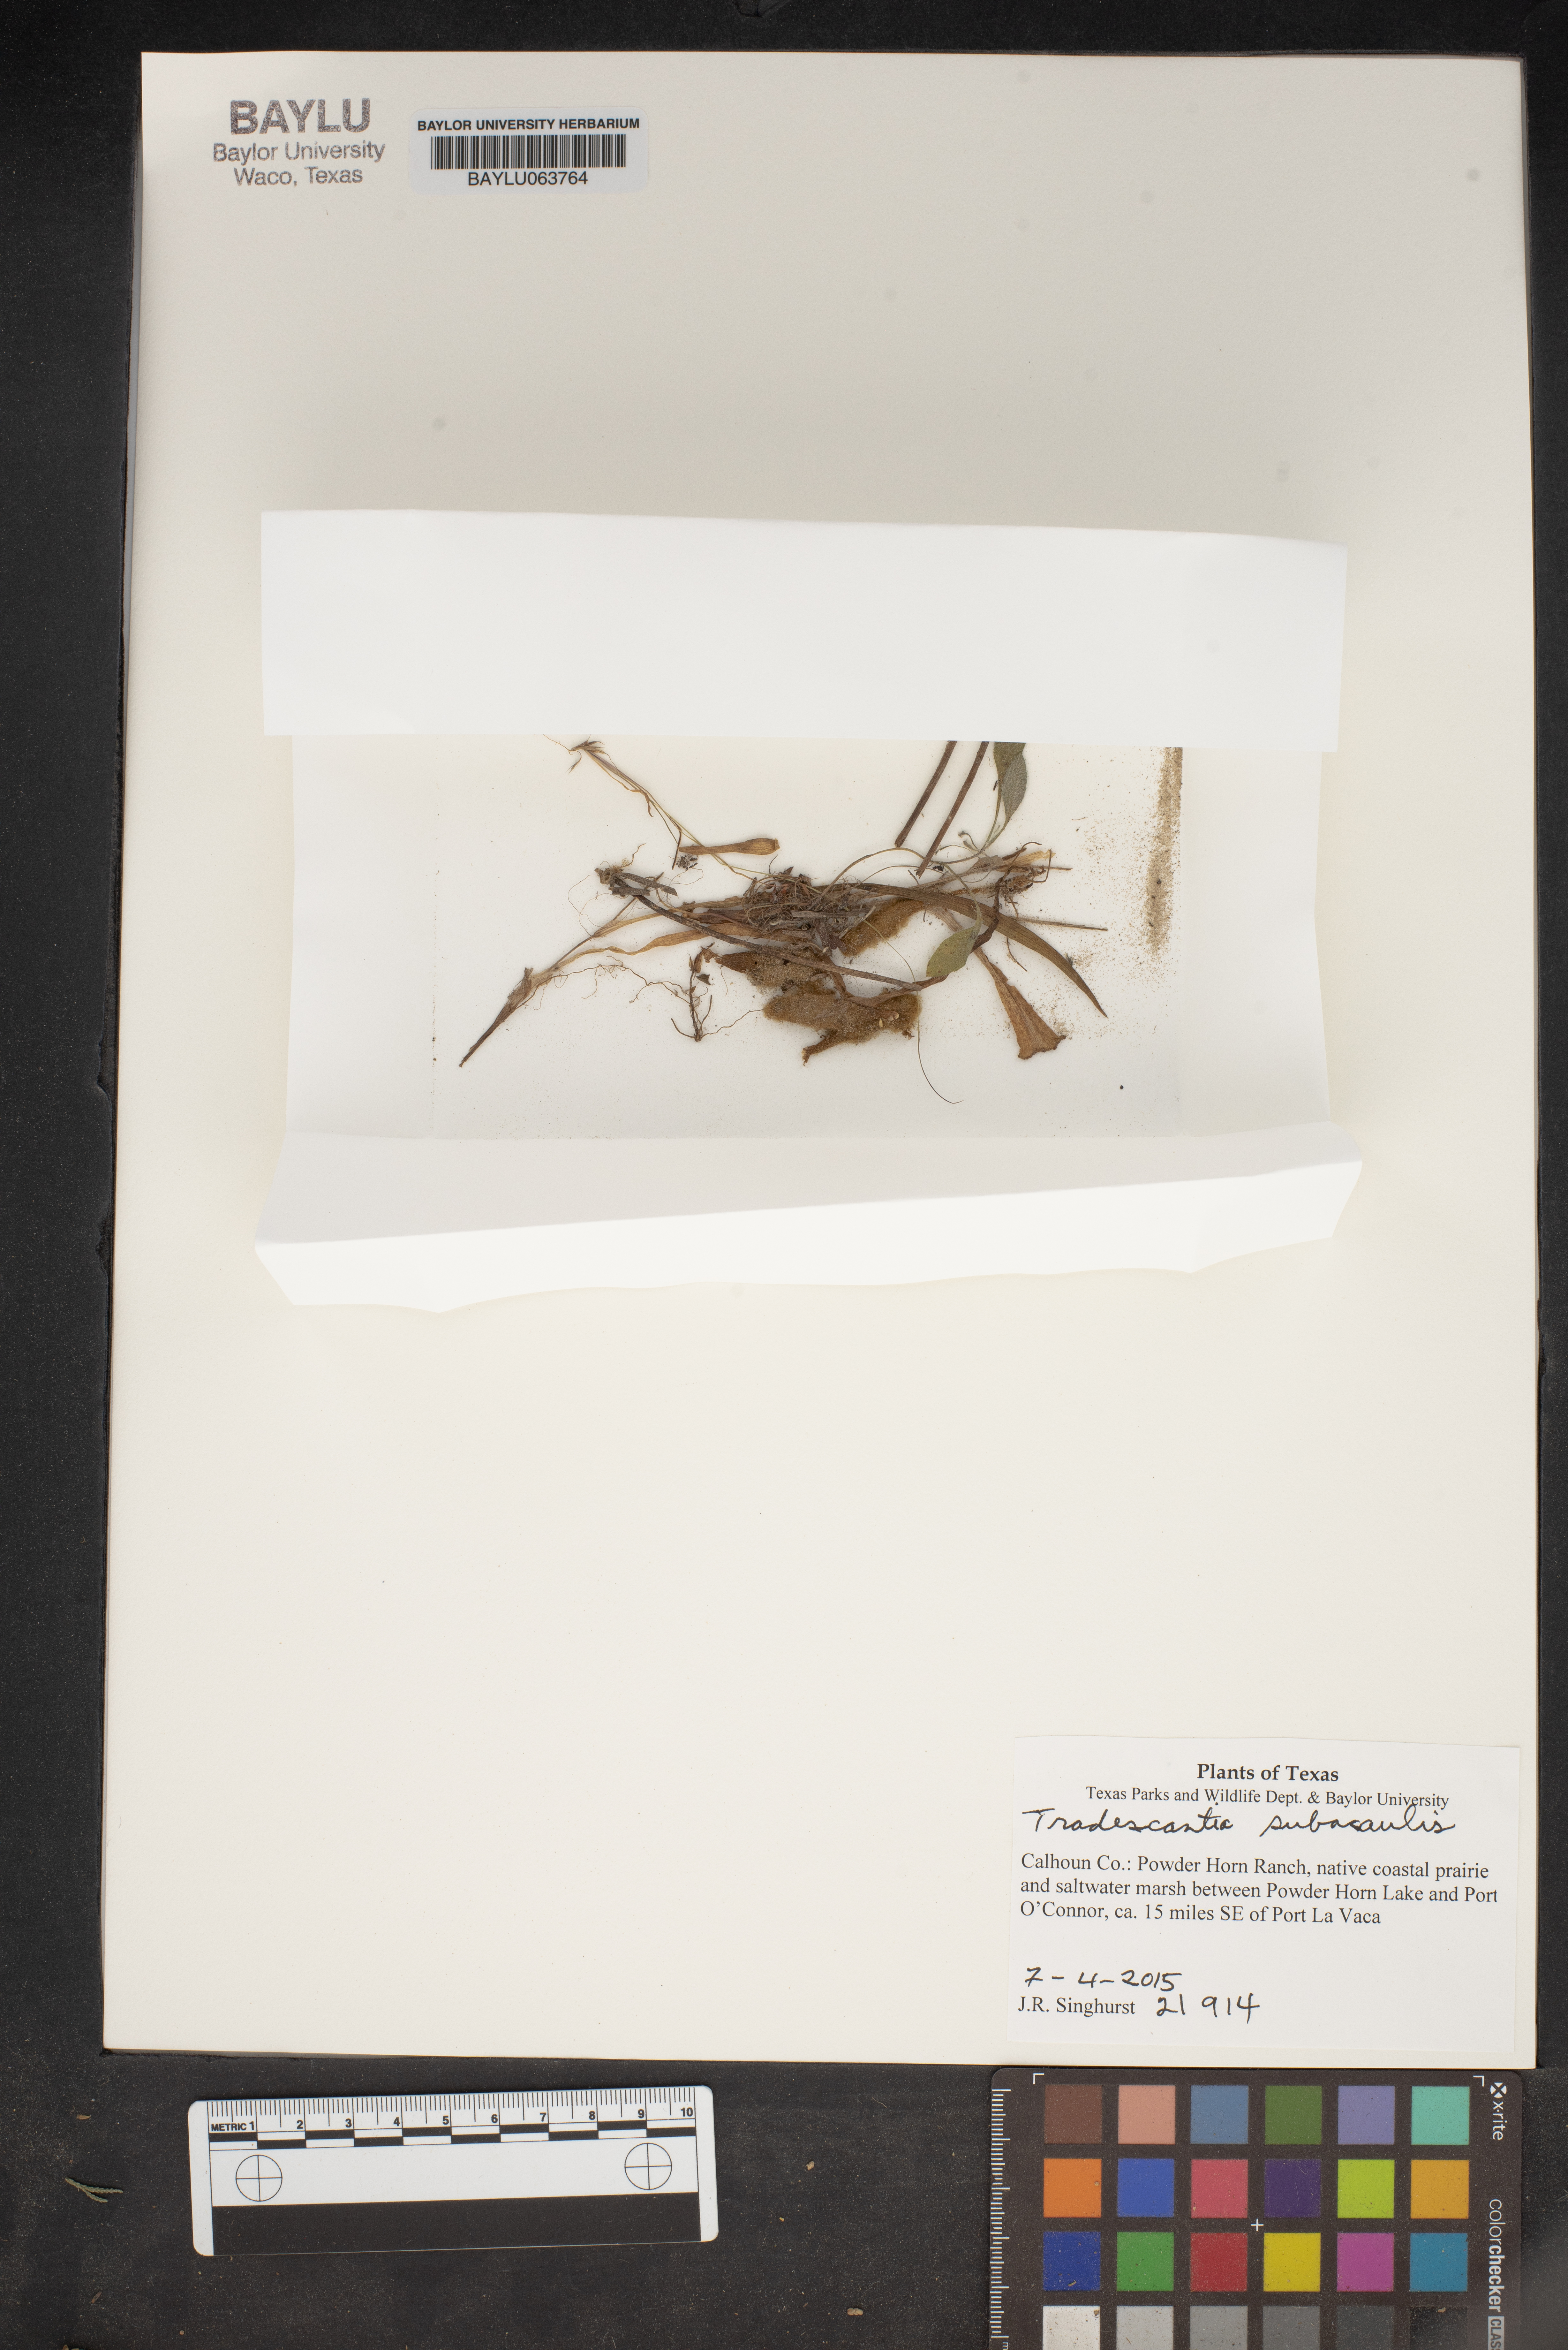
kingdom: Plantae
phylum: Tracheophyta
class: Liliopsida
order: Commelinales
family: Commelinaceae
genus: Tradescantia
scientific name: Tradescantia subacaulis
